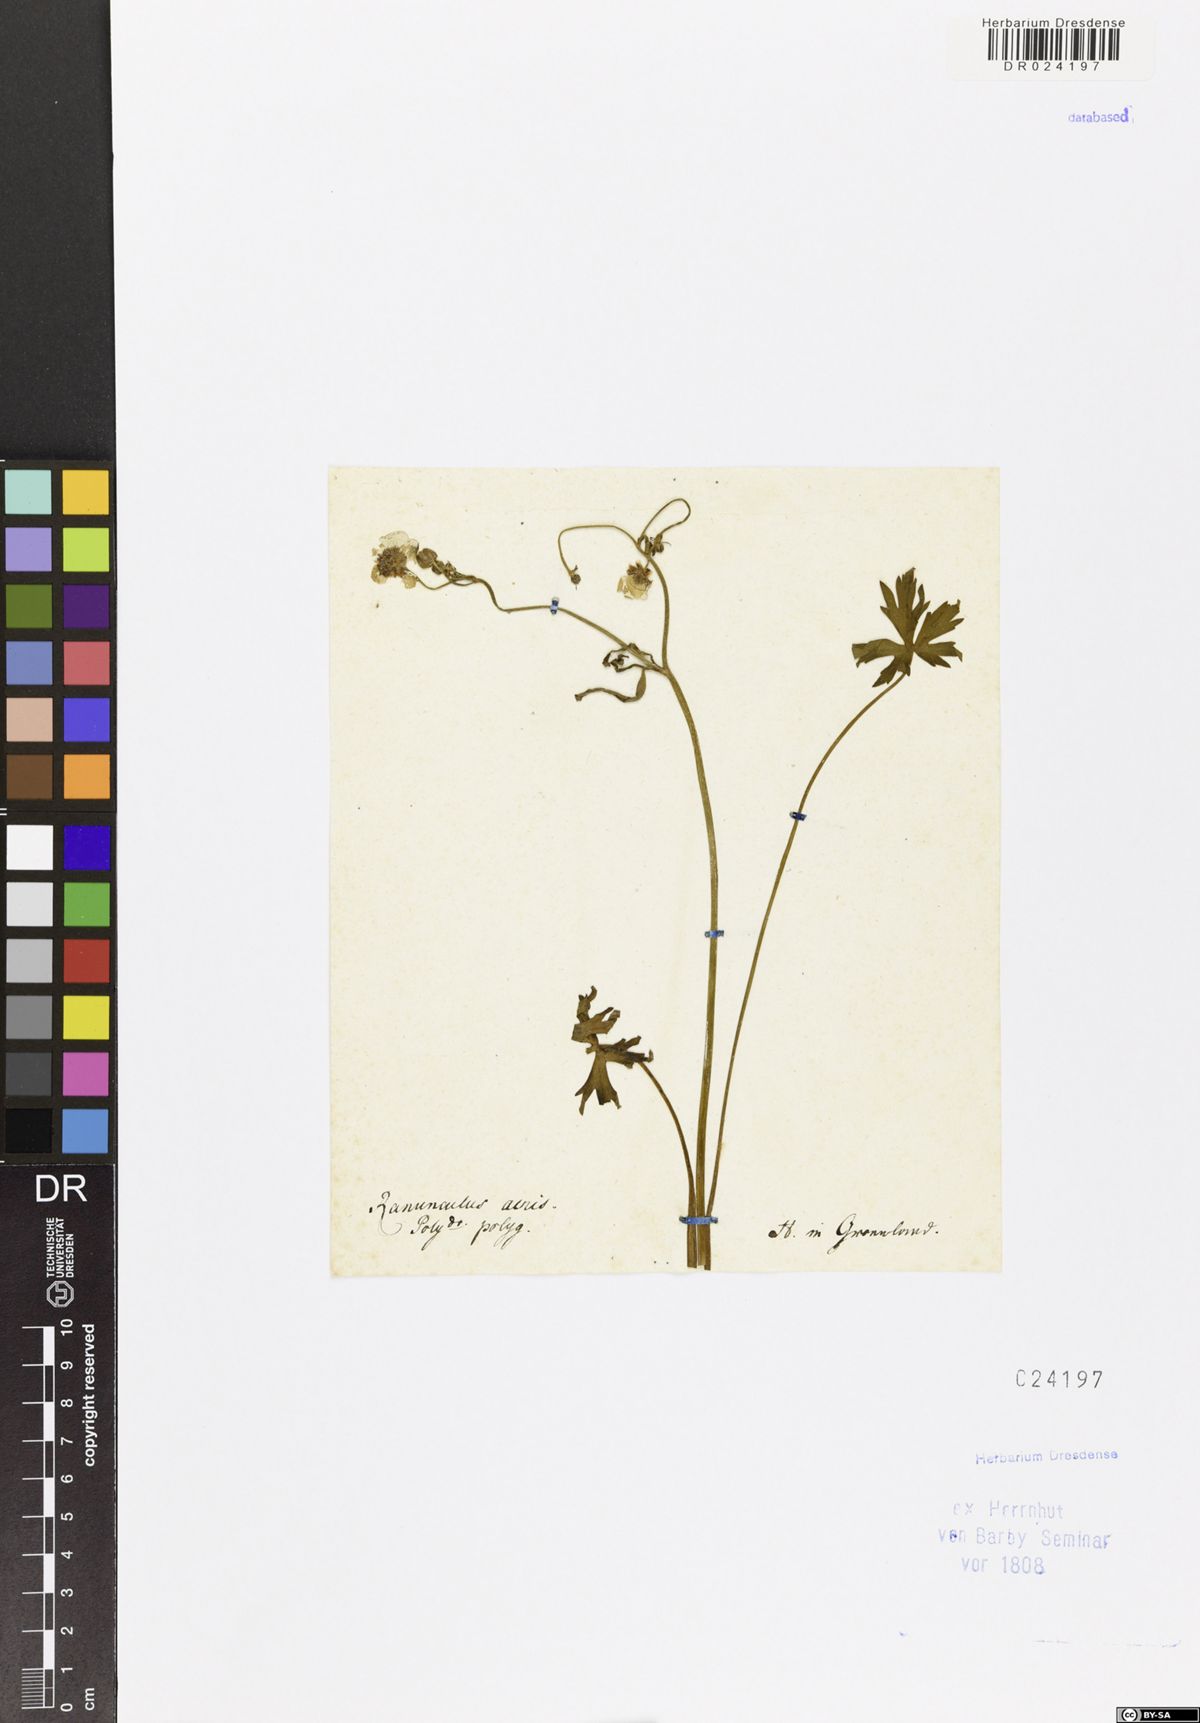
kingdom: Plantae
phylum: Tracheophyta
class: Magnoliopsida
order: Ranunculales
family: Ranunculaceae
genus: Ranunculus
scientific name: Ranunculus acris
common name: Meadow buttercup
